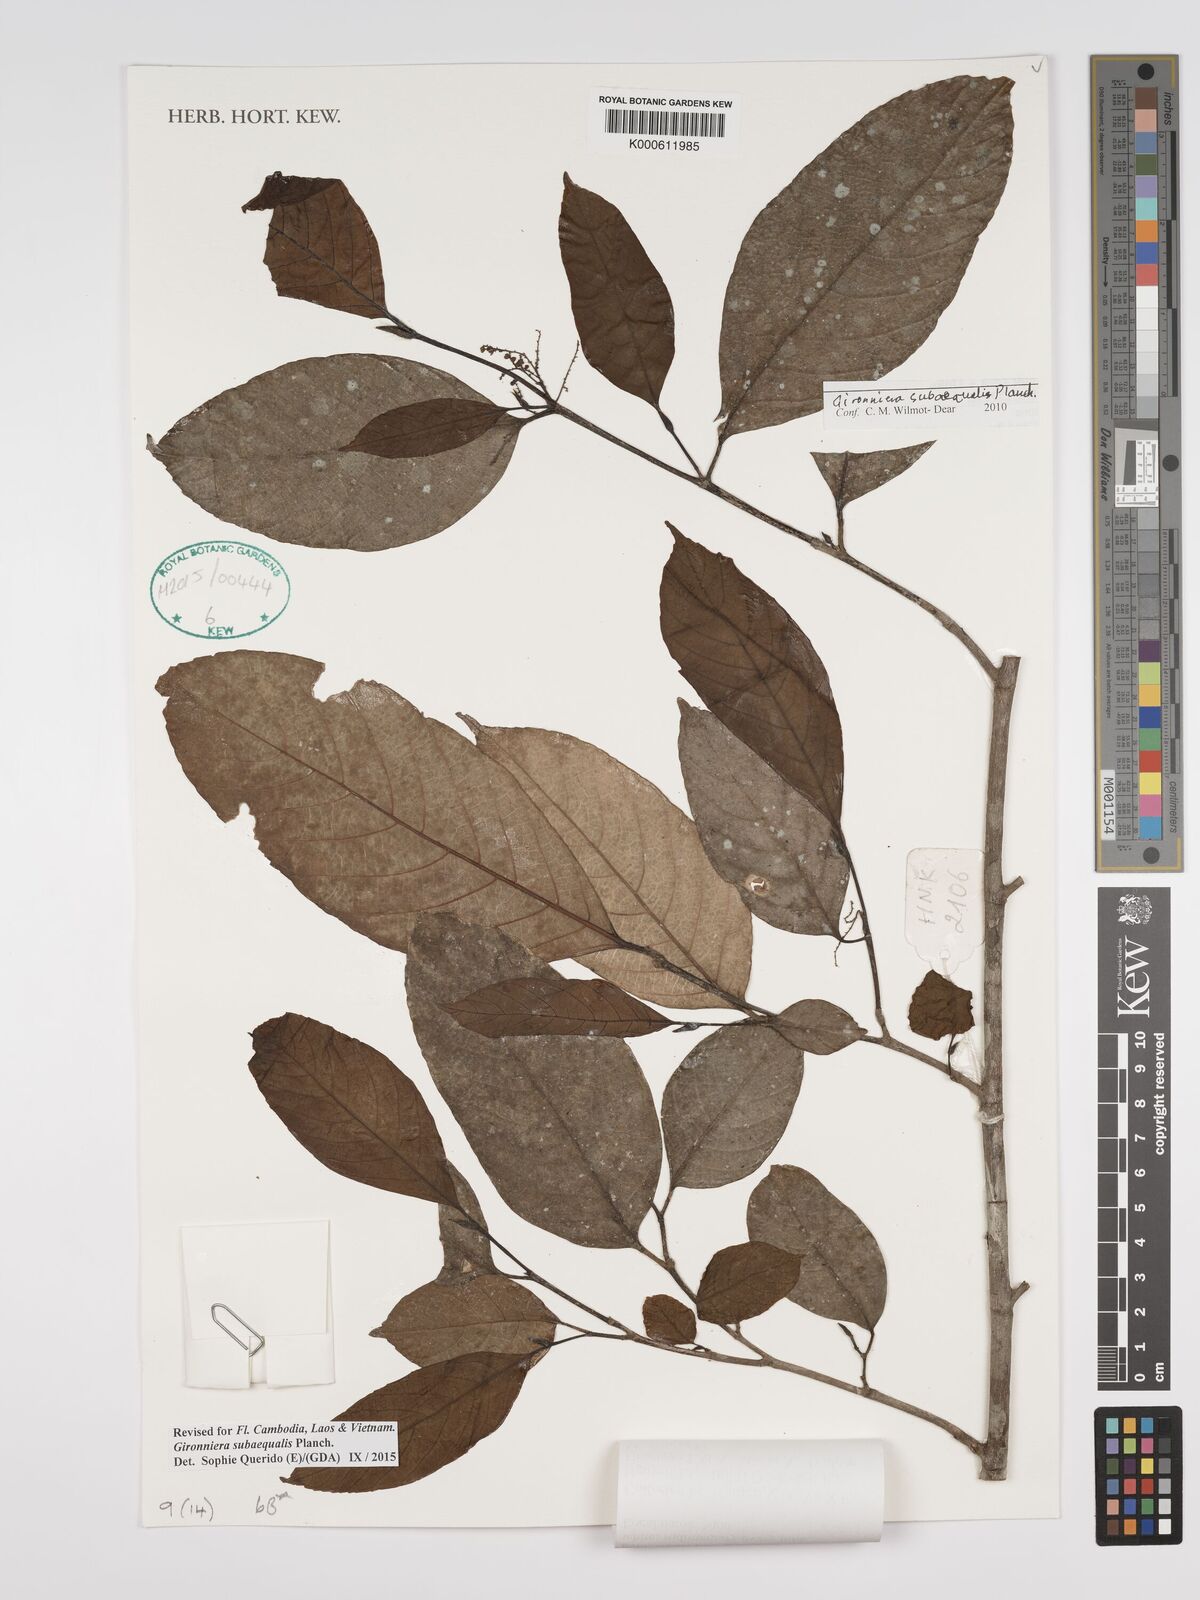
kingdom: Plantae
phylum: Tracheophyta
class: Magnoliopsida
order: Rosales
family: Cannabaceae
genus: Gironniera
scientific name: Gironniera subaequalis
